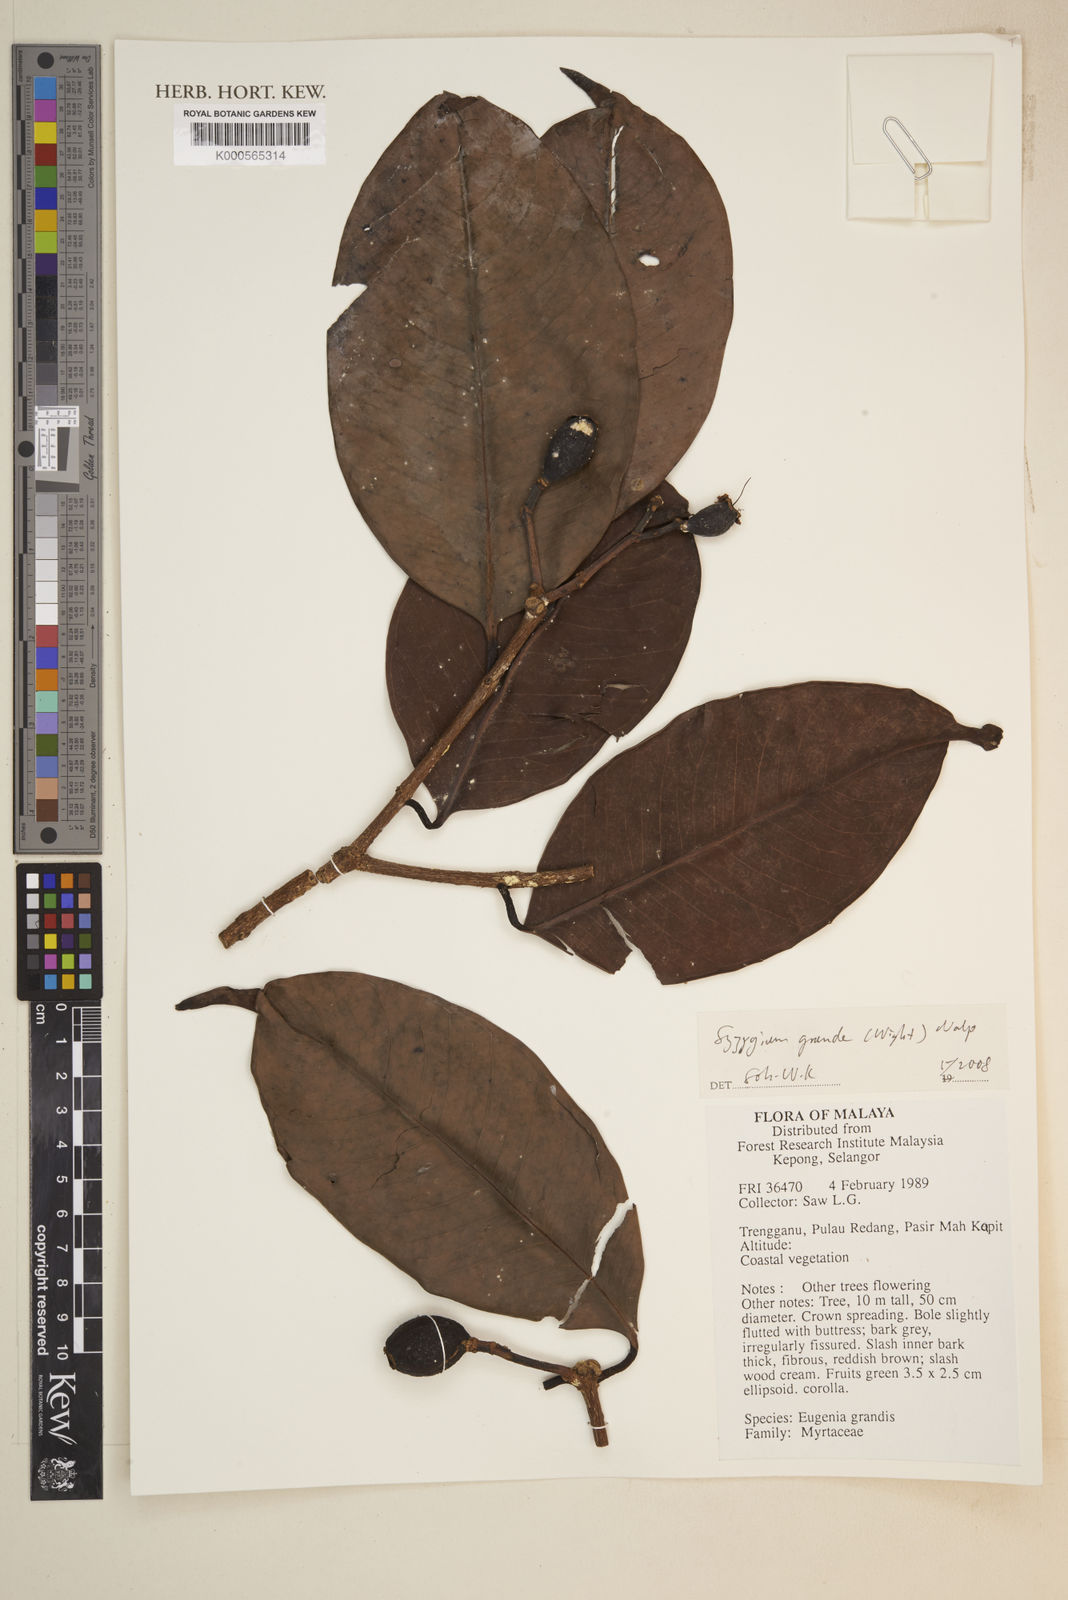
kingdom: Plantae
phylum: Tracheophyta
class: Magnoliopsida
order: Myrtales
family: Myrtaceae
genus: Syzygium
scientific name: Syzygium grande
